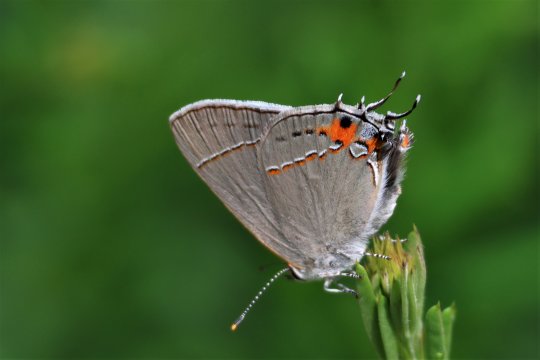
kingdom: Animalia
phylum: Arthropoda
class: Insecta
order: Lepidoptera
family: Lycaenidae
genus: Strymon
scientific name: Strymon melinus
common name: Gray Hairstreak
